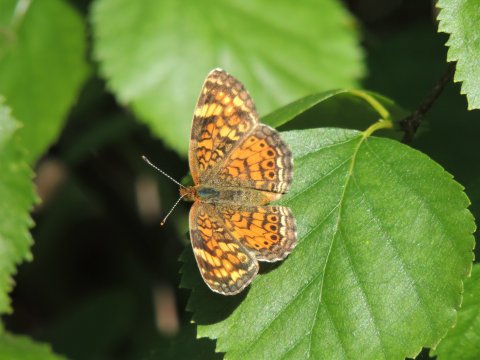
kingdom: Animalia
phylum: Arthropoda
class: Insecta
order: Lepidoptera
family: Nymphalidae
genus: Eresia
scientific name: Eresia aveyrona
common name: Mylitta Crescent
